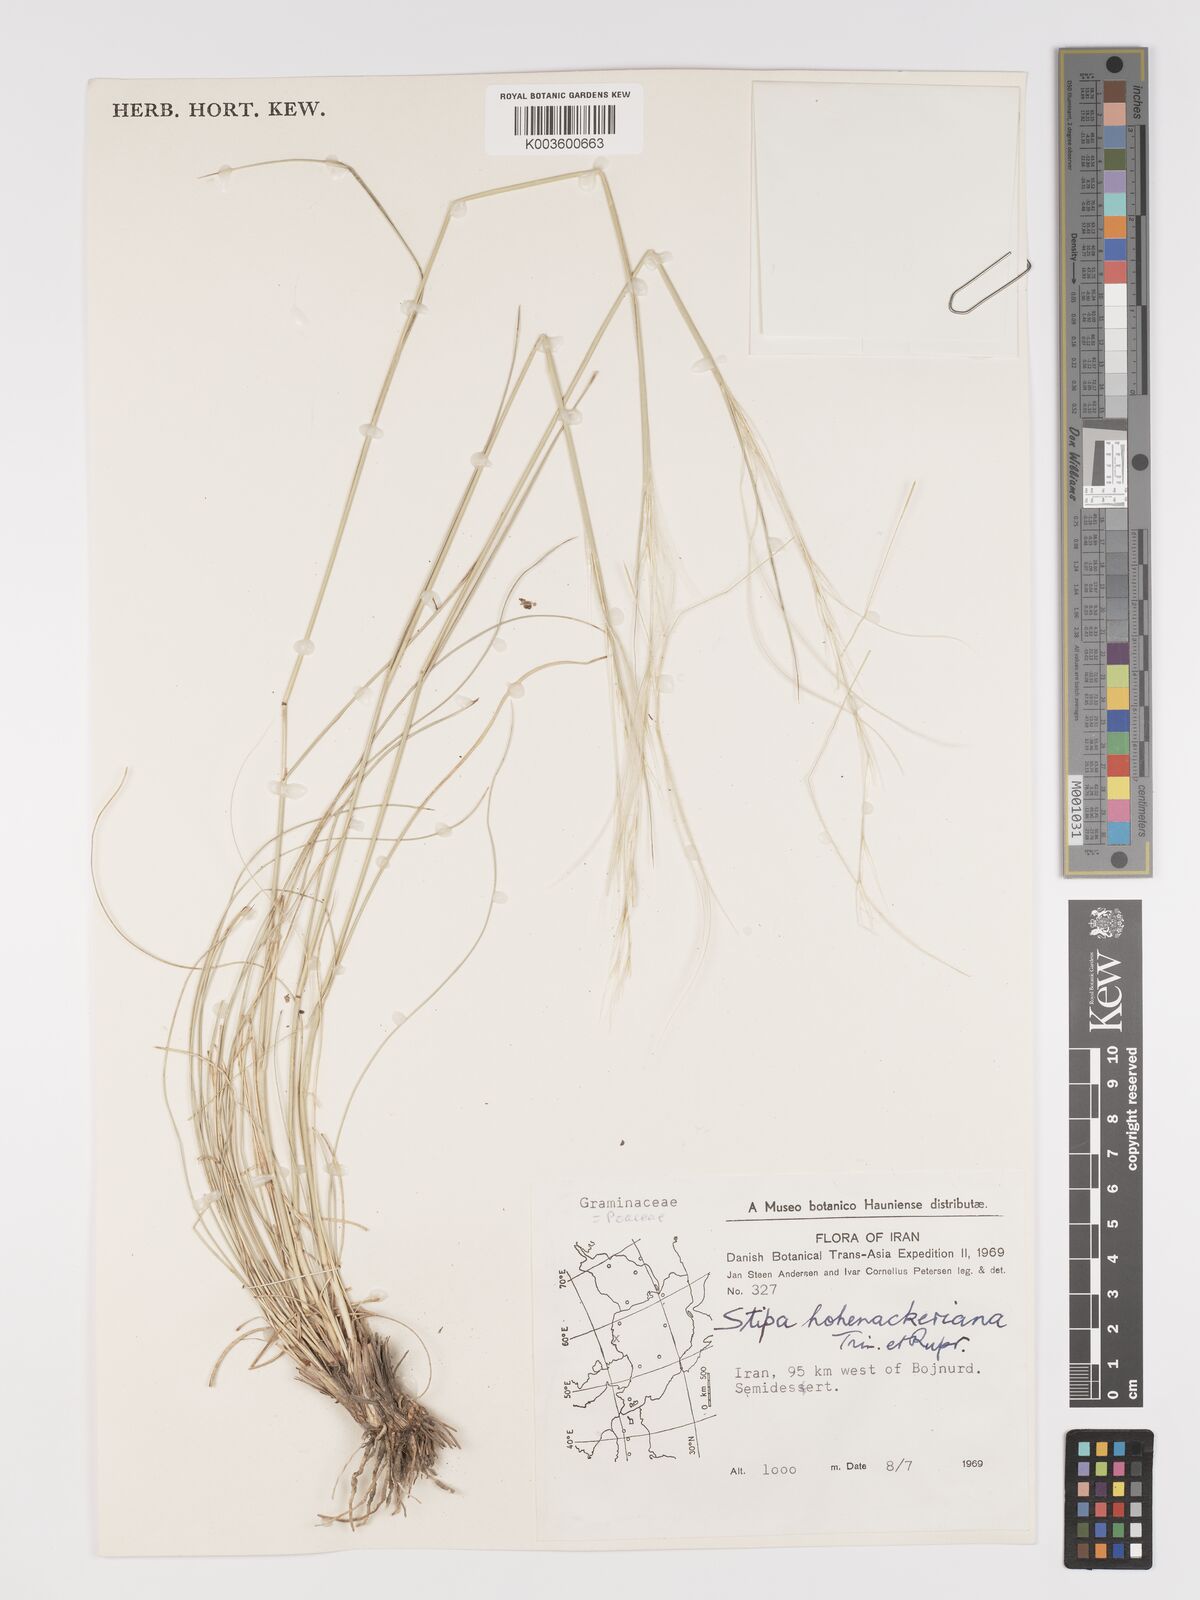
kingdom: Plantae
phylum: Tracheophyta
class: Liliopsida
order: Poales
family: Poaceae
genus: Stipa
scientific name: Stipa hohenackeriana
